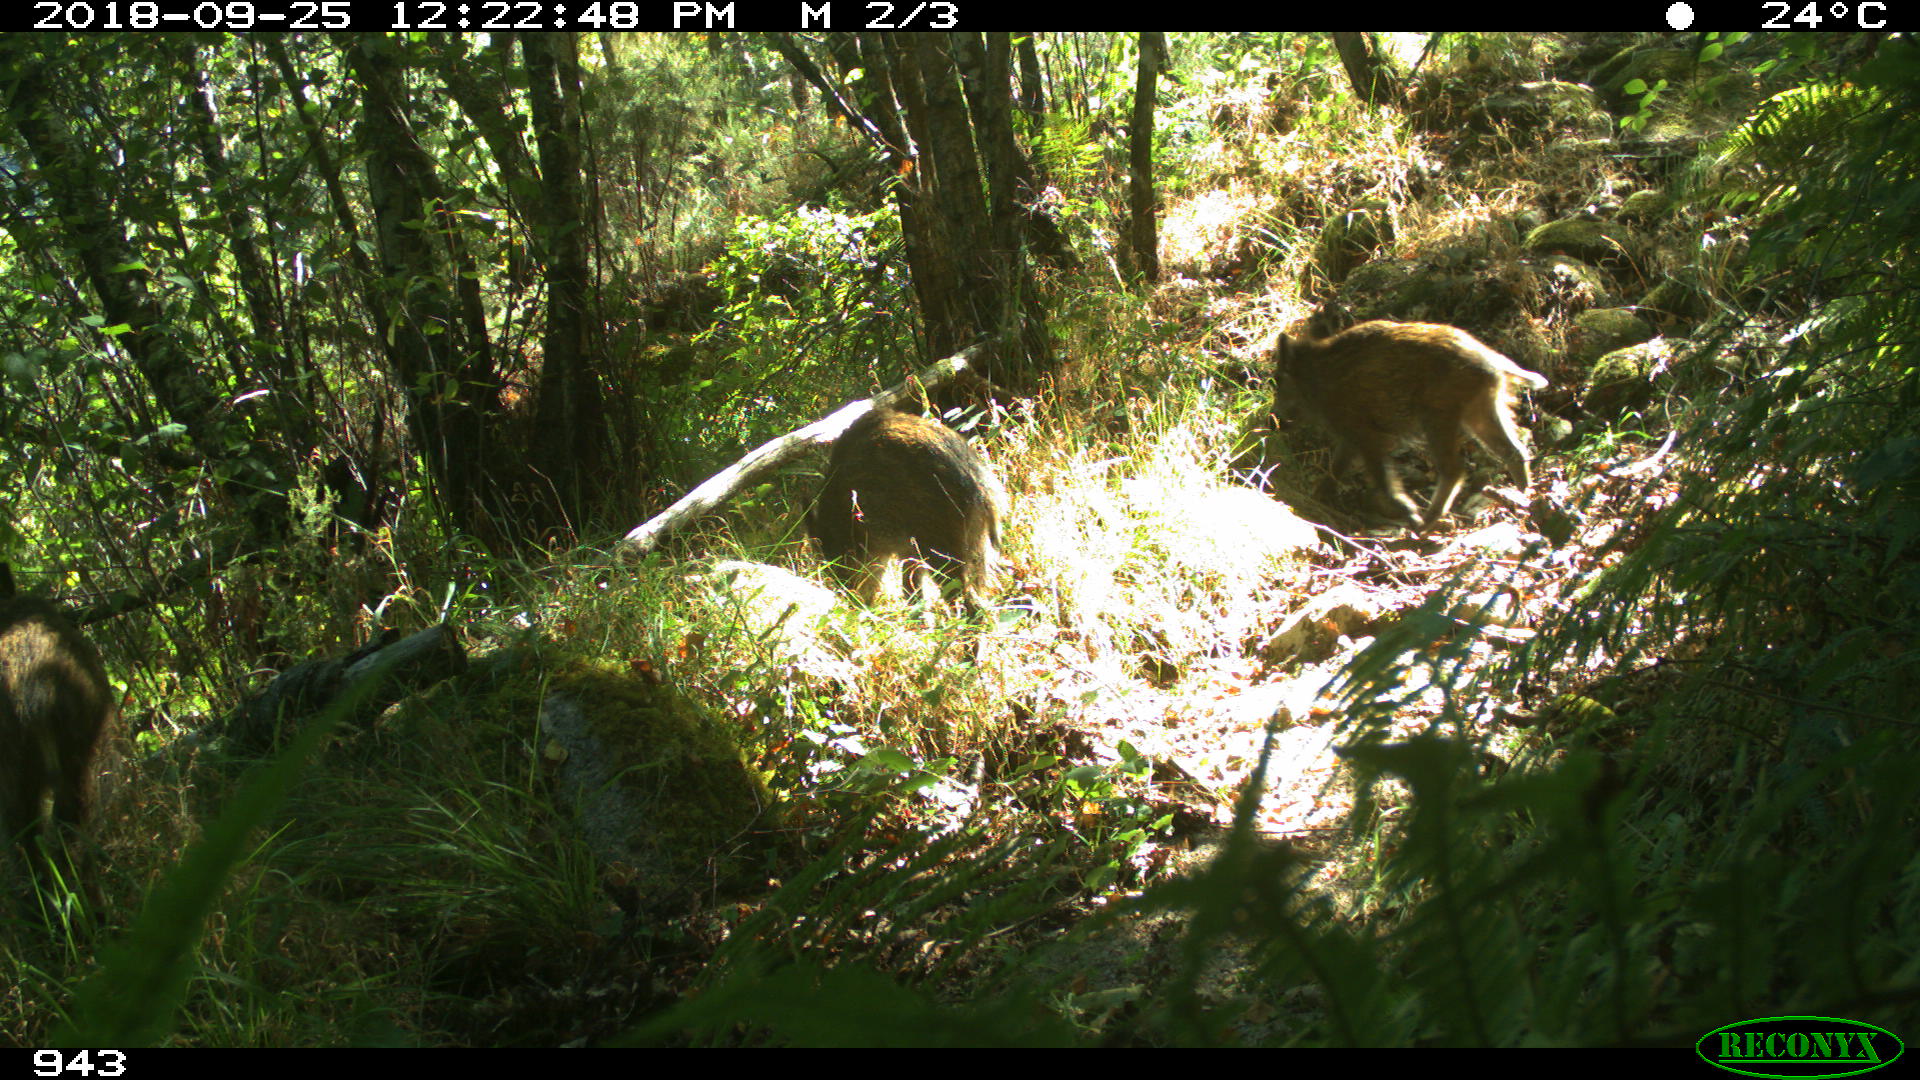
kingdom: Animalia
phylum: Chordata
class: Mammalia
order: Artiodactyla
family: Suidae
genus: Sus
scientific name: Sus scrofa
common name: Wild boar
